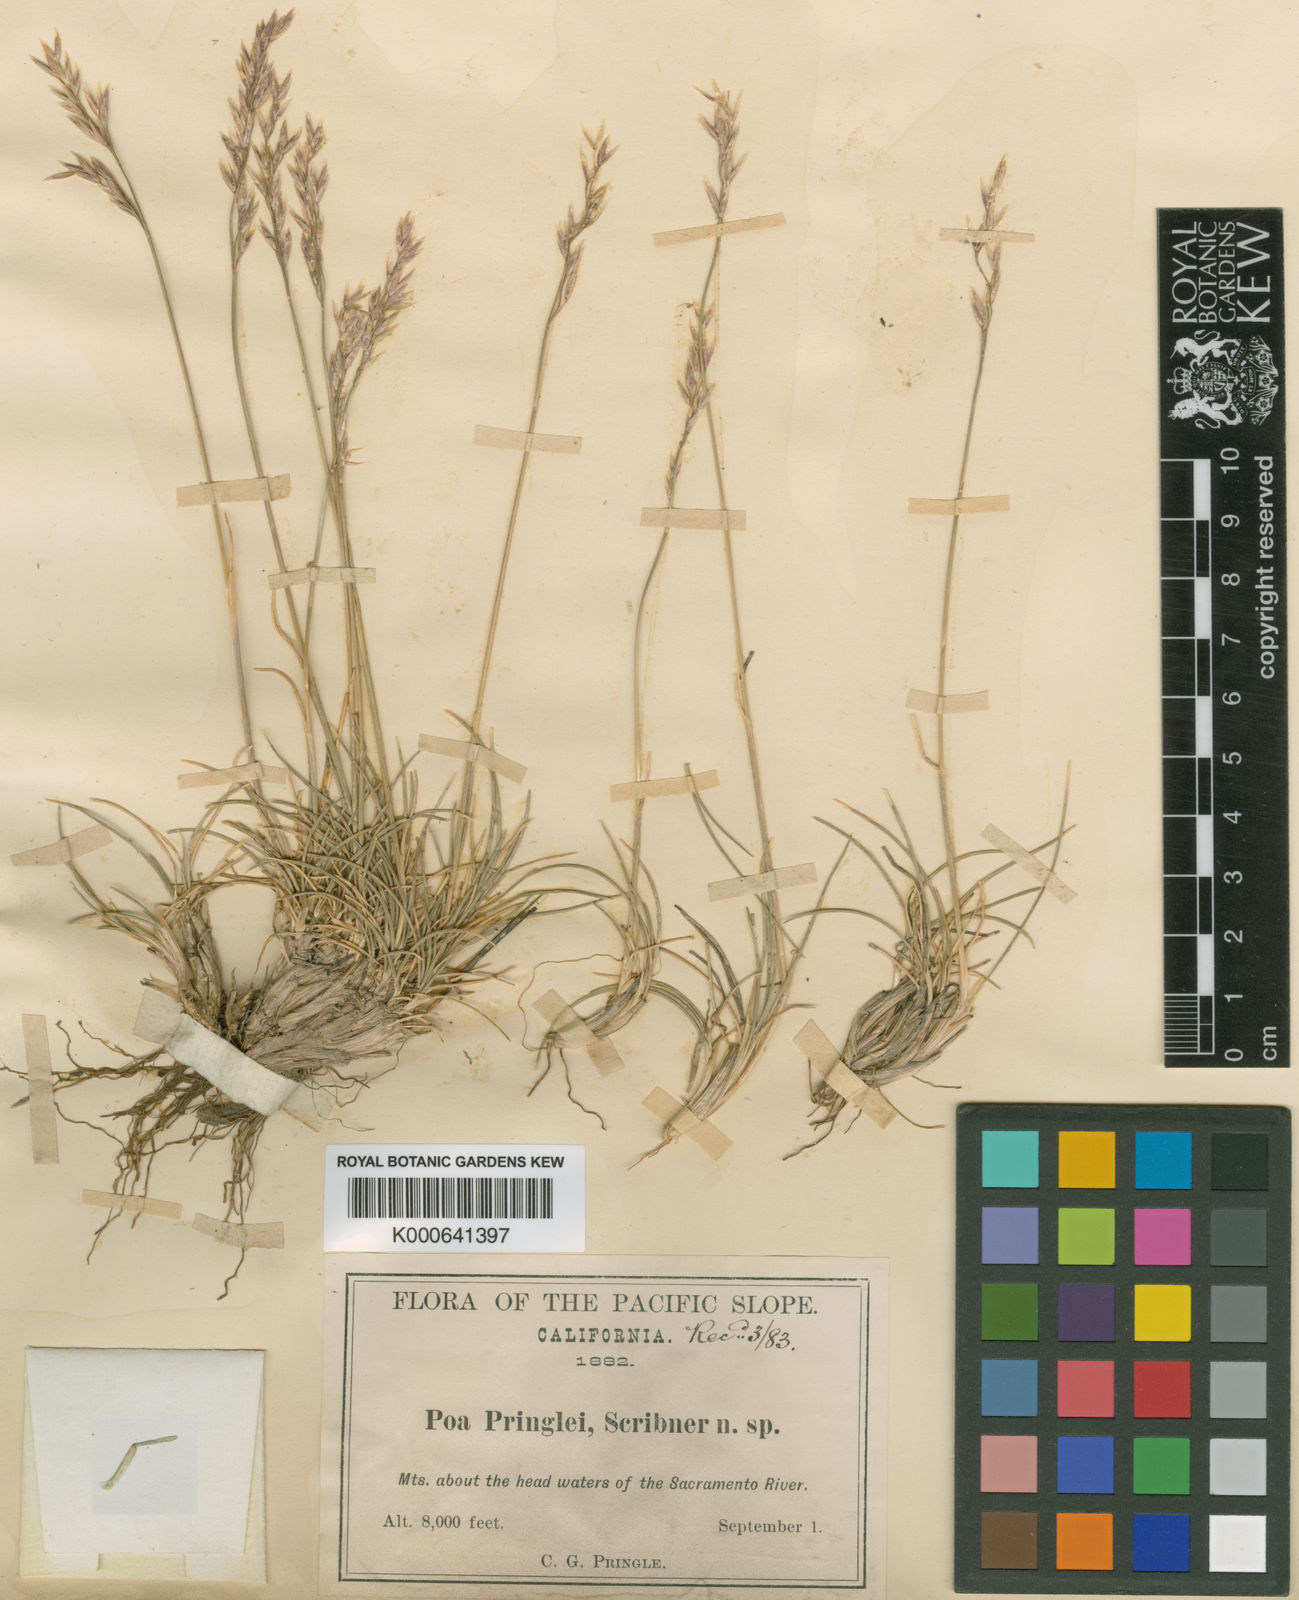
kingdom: Plantae
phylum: Tracheophyta
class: Liliopsida
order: Poales
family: Poaceae
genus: Poa
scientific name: Poa pringlei
